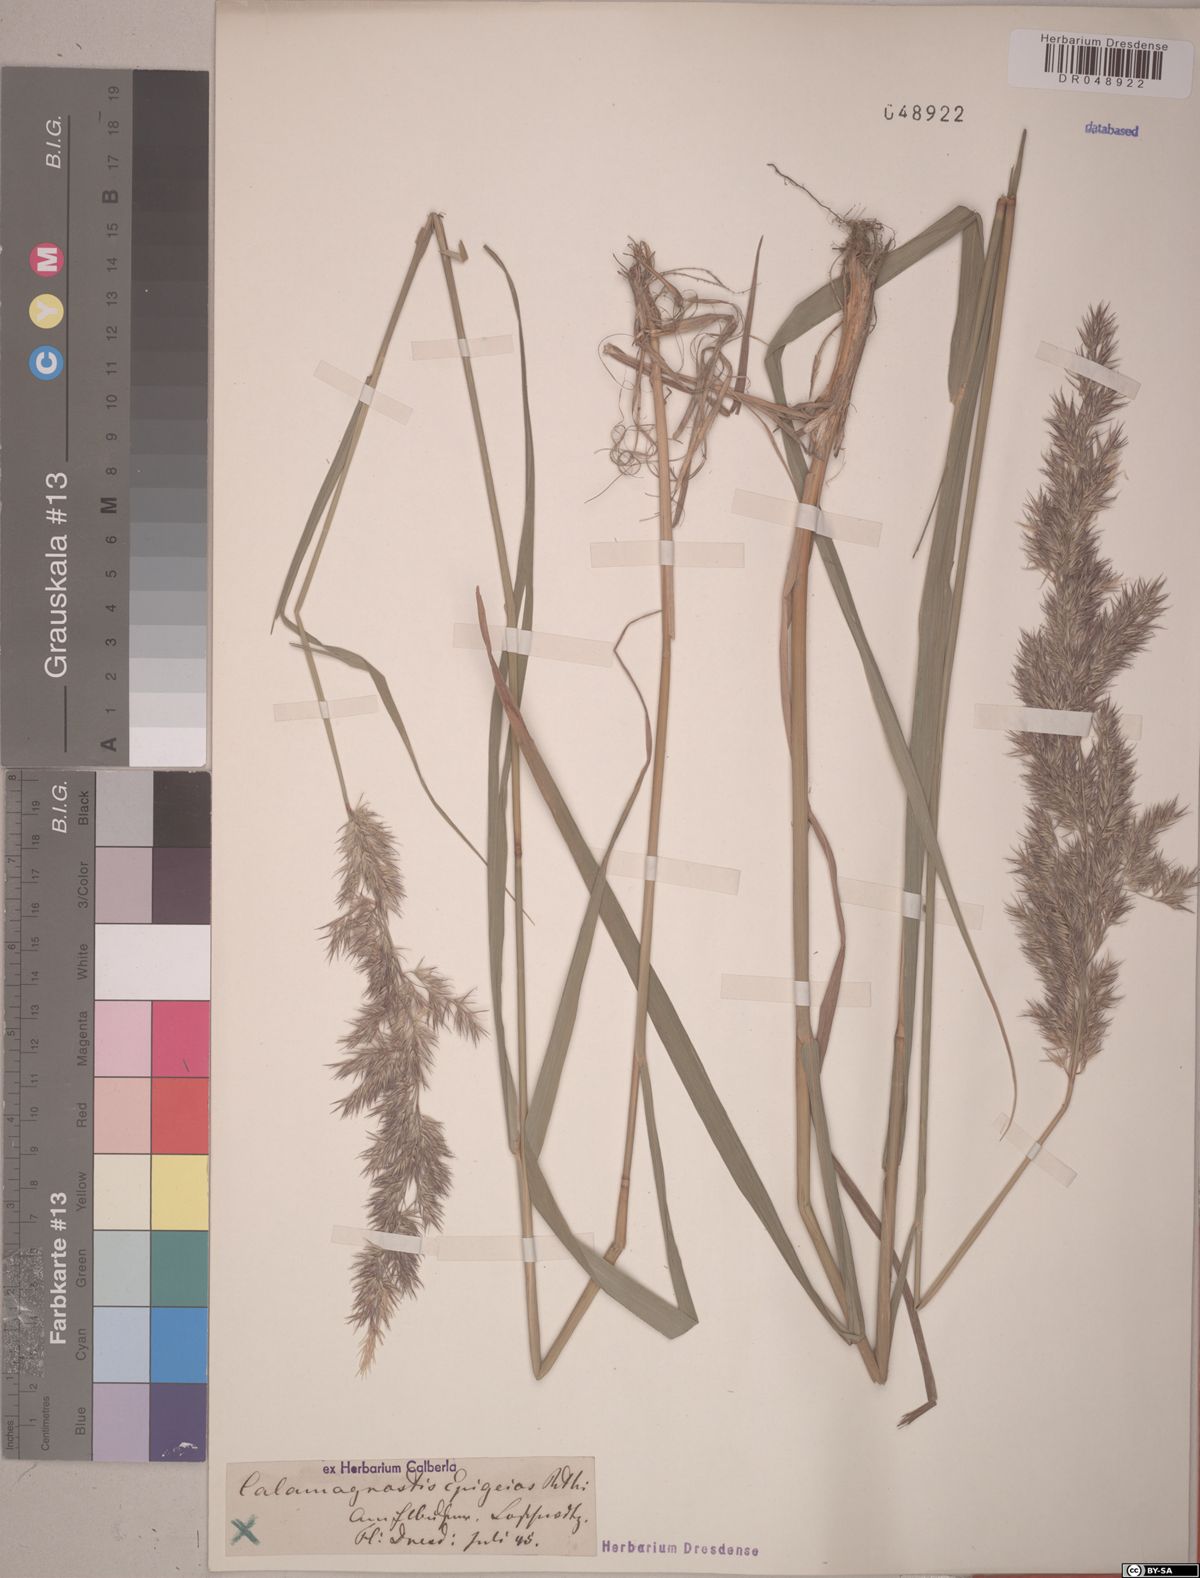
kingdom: Plantae
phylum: Tracheophyta
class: Liliopsida
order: Poales
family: Poaceae
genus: Calamagrostis
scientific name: Calamagrostis epigejos
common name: Wood small-reed
